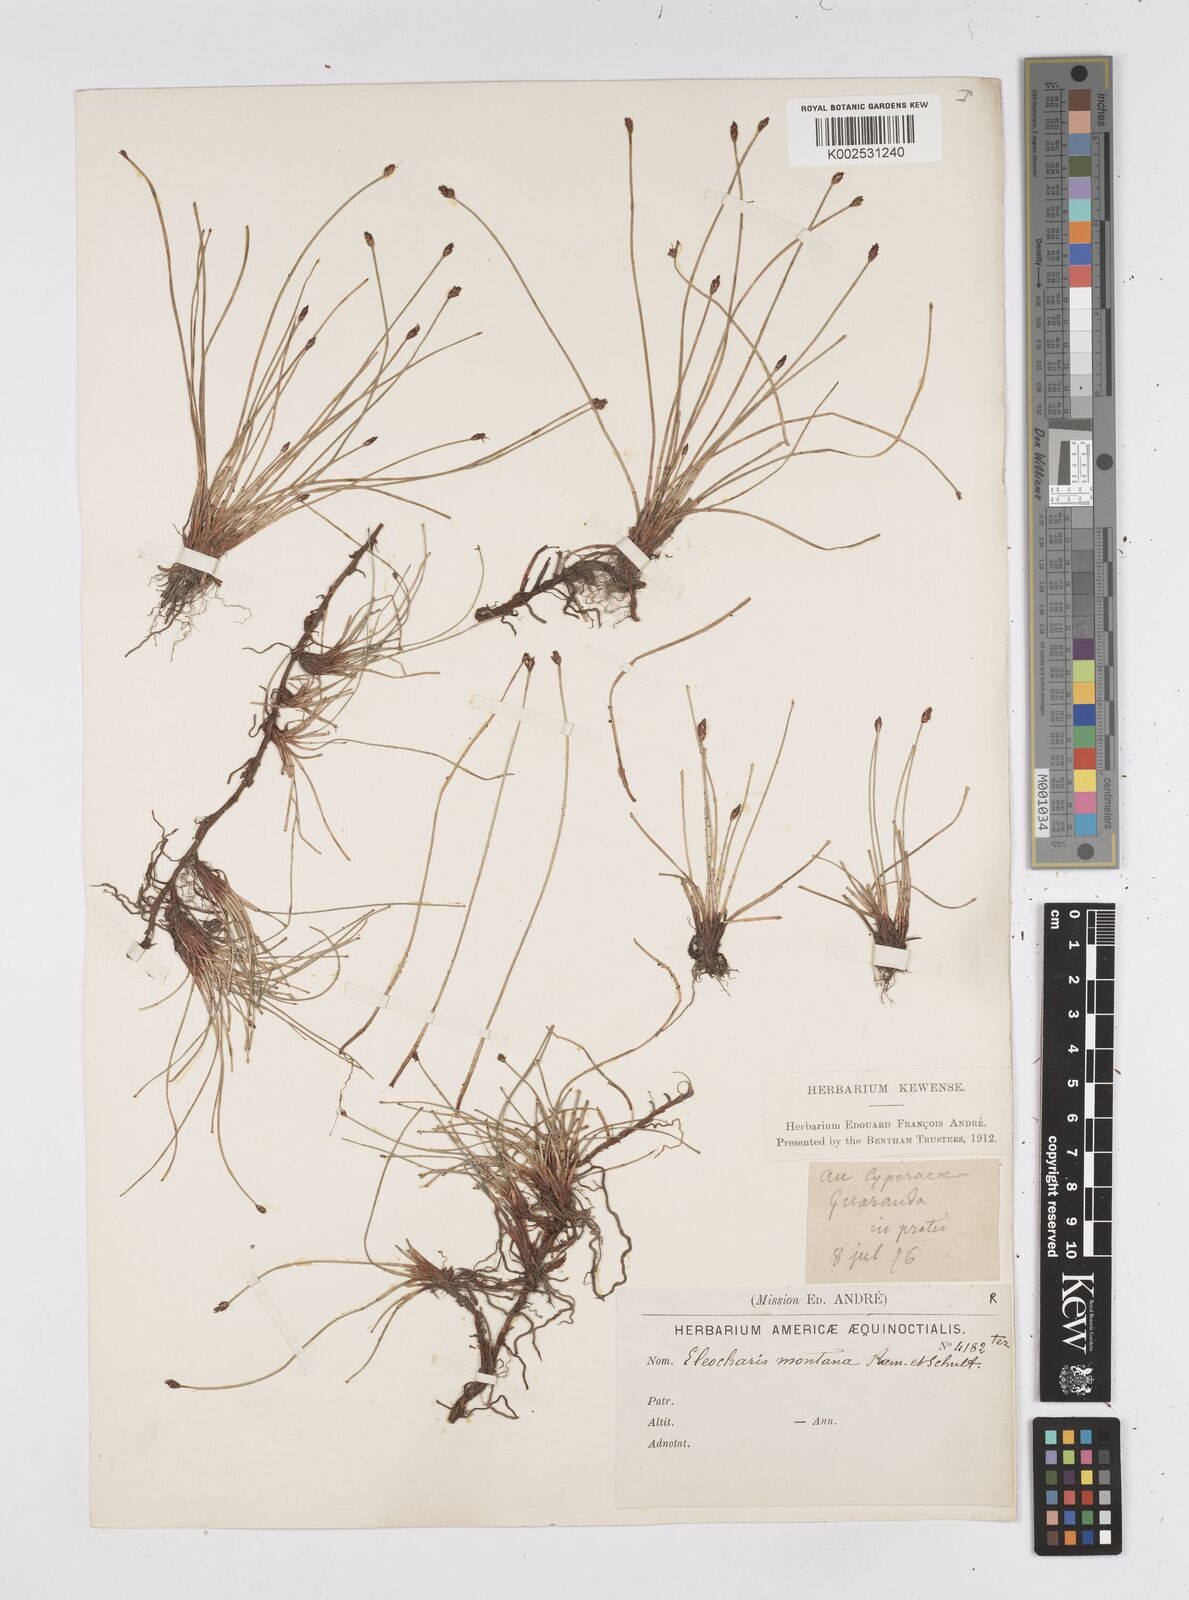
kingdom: Plantae
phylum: Tracheophyta
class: Liliopsida
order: Poales
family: Cyperaceae
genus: Eleocharis
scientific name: Eleocharis montana
